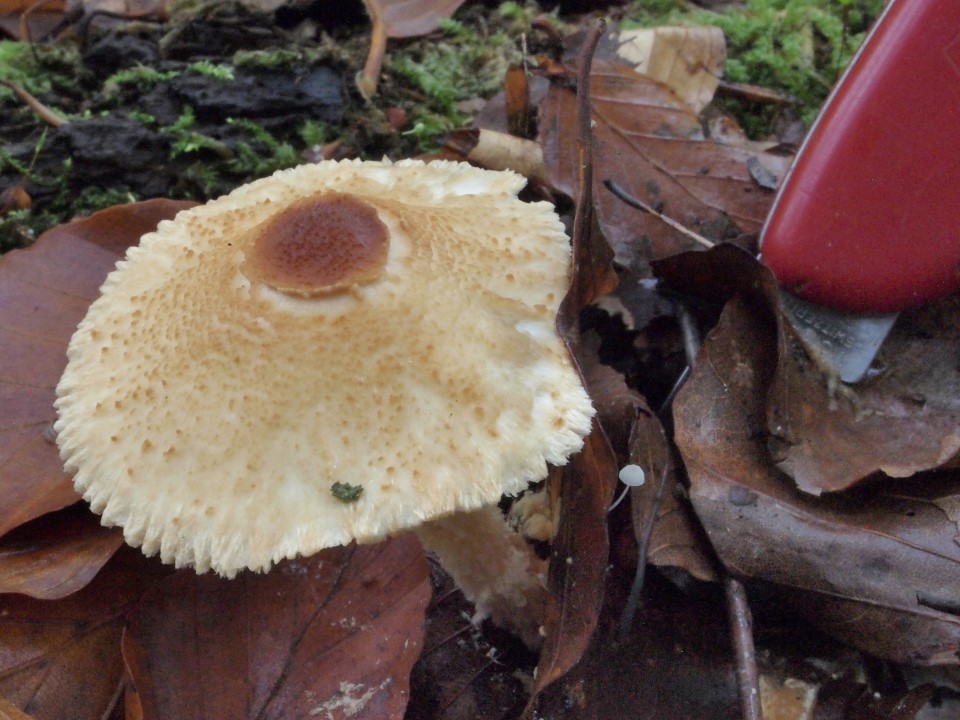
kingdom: Fungi
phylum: Basidiomycota
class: Agaricomycetes
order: Agaricales
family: Agaricaceae
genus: Lepiota
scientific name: Lepiota magnispora
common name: gulfnugget parasolhat
